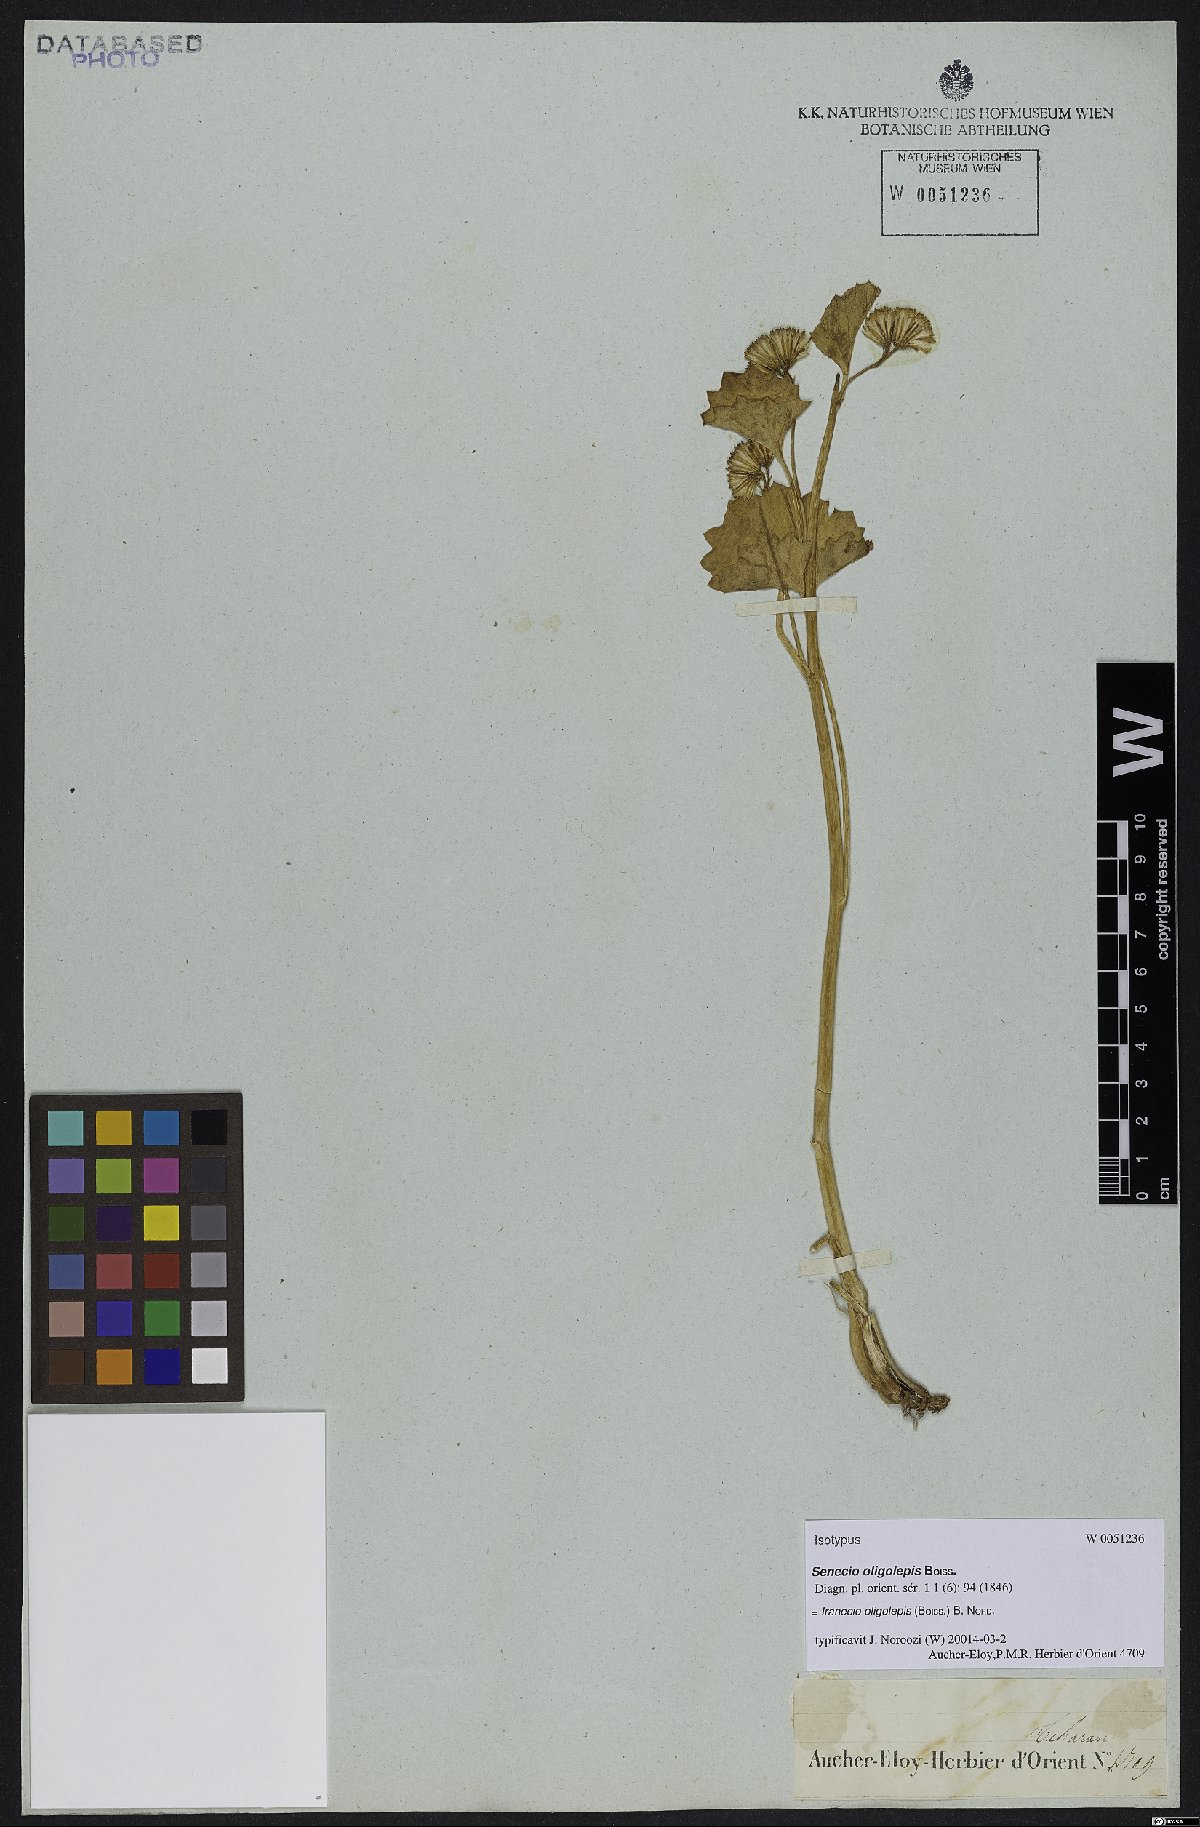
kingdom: Plantae
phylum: Tracheophyta
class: Magnoliopsida
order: Asterales
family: Asteraceae
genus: Iranecio
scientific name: Iranecio oligolepis
